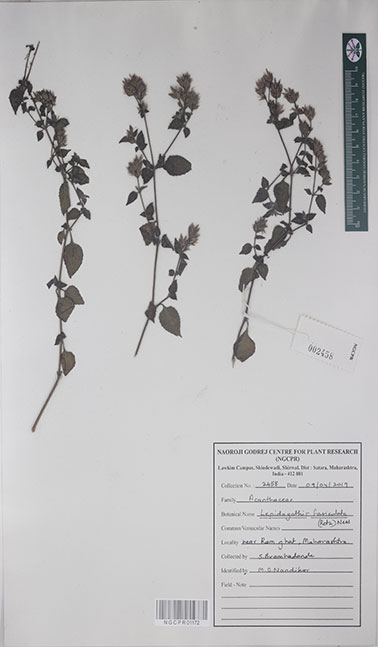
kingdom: Plantae
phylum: Tracheophyta
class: Magnoliopsida
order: Lamiales
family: Acanthaceae
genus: Lepidagathis
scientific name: Lepidagathis fasciculata
